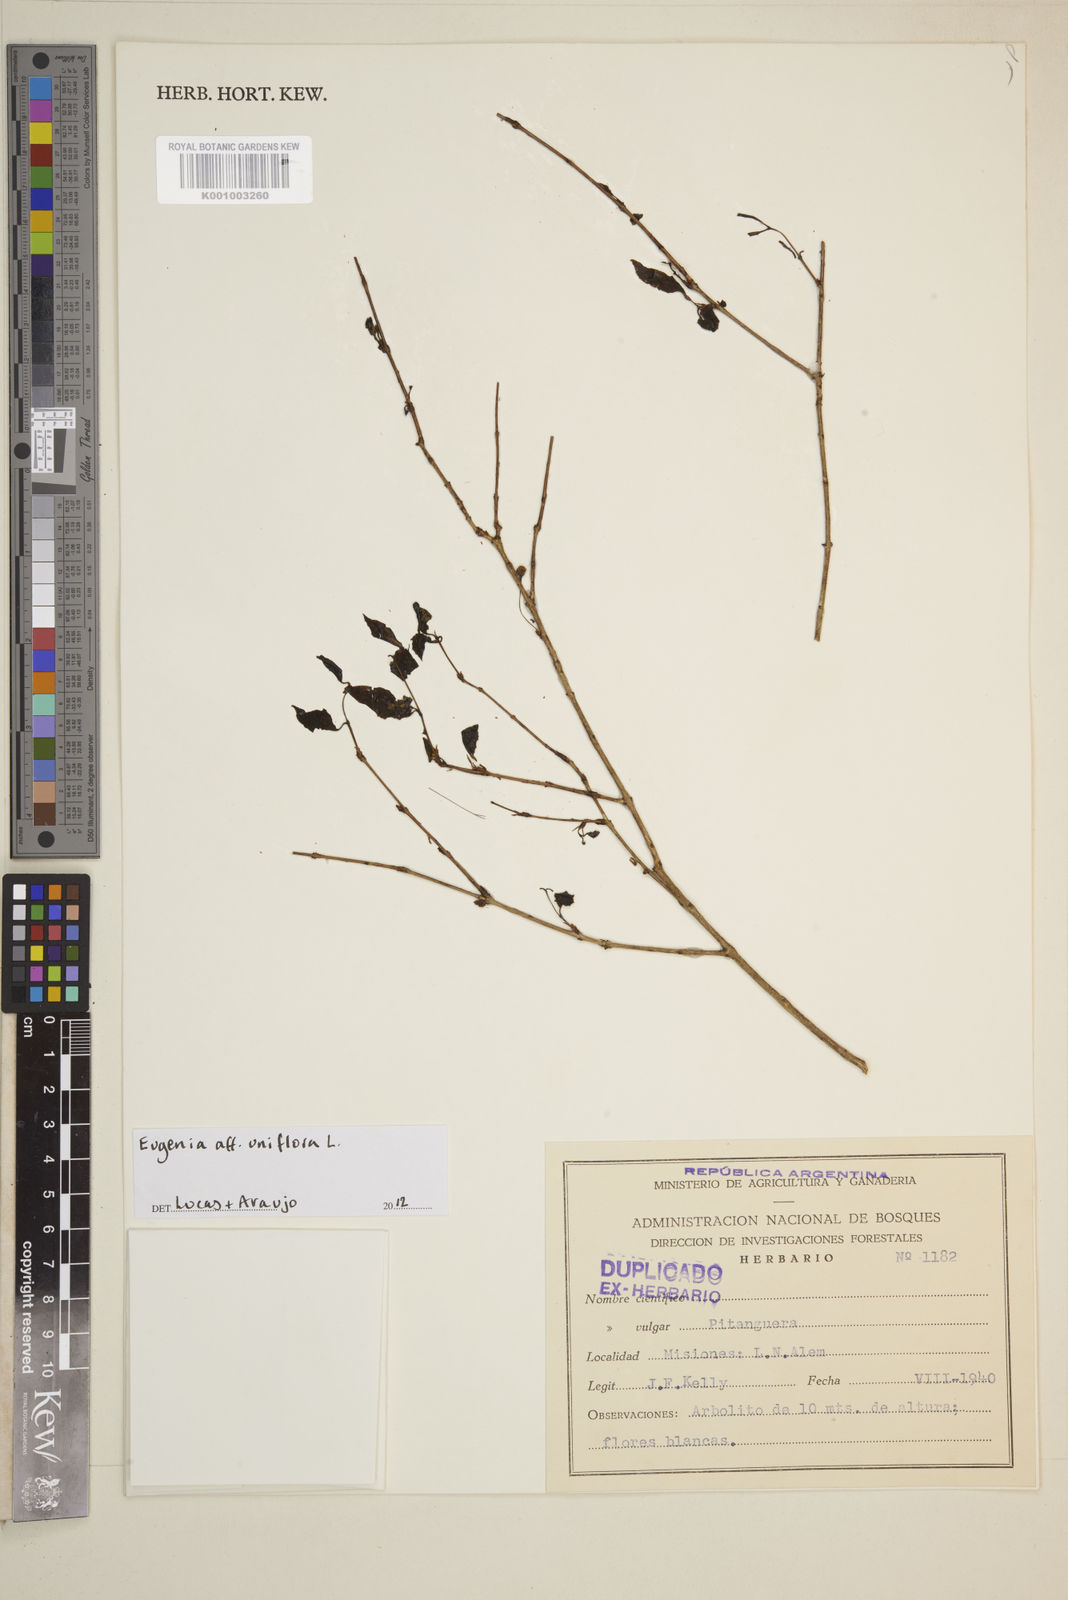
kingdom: Plantae
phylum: Tracheophyta
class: Magnoliopsida
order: Myrtales
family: Myrtaceae
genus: Eugenia
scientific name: Eugenia uniflora
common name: Surinam cherry
